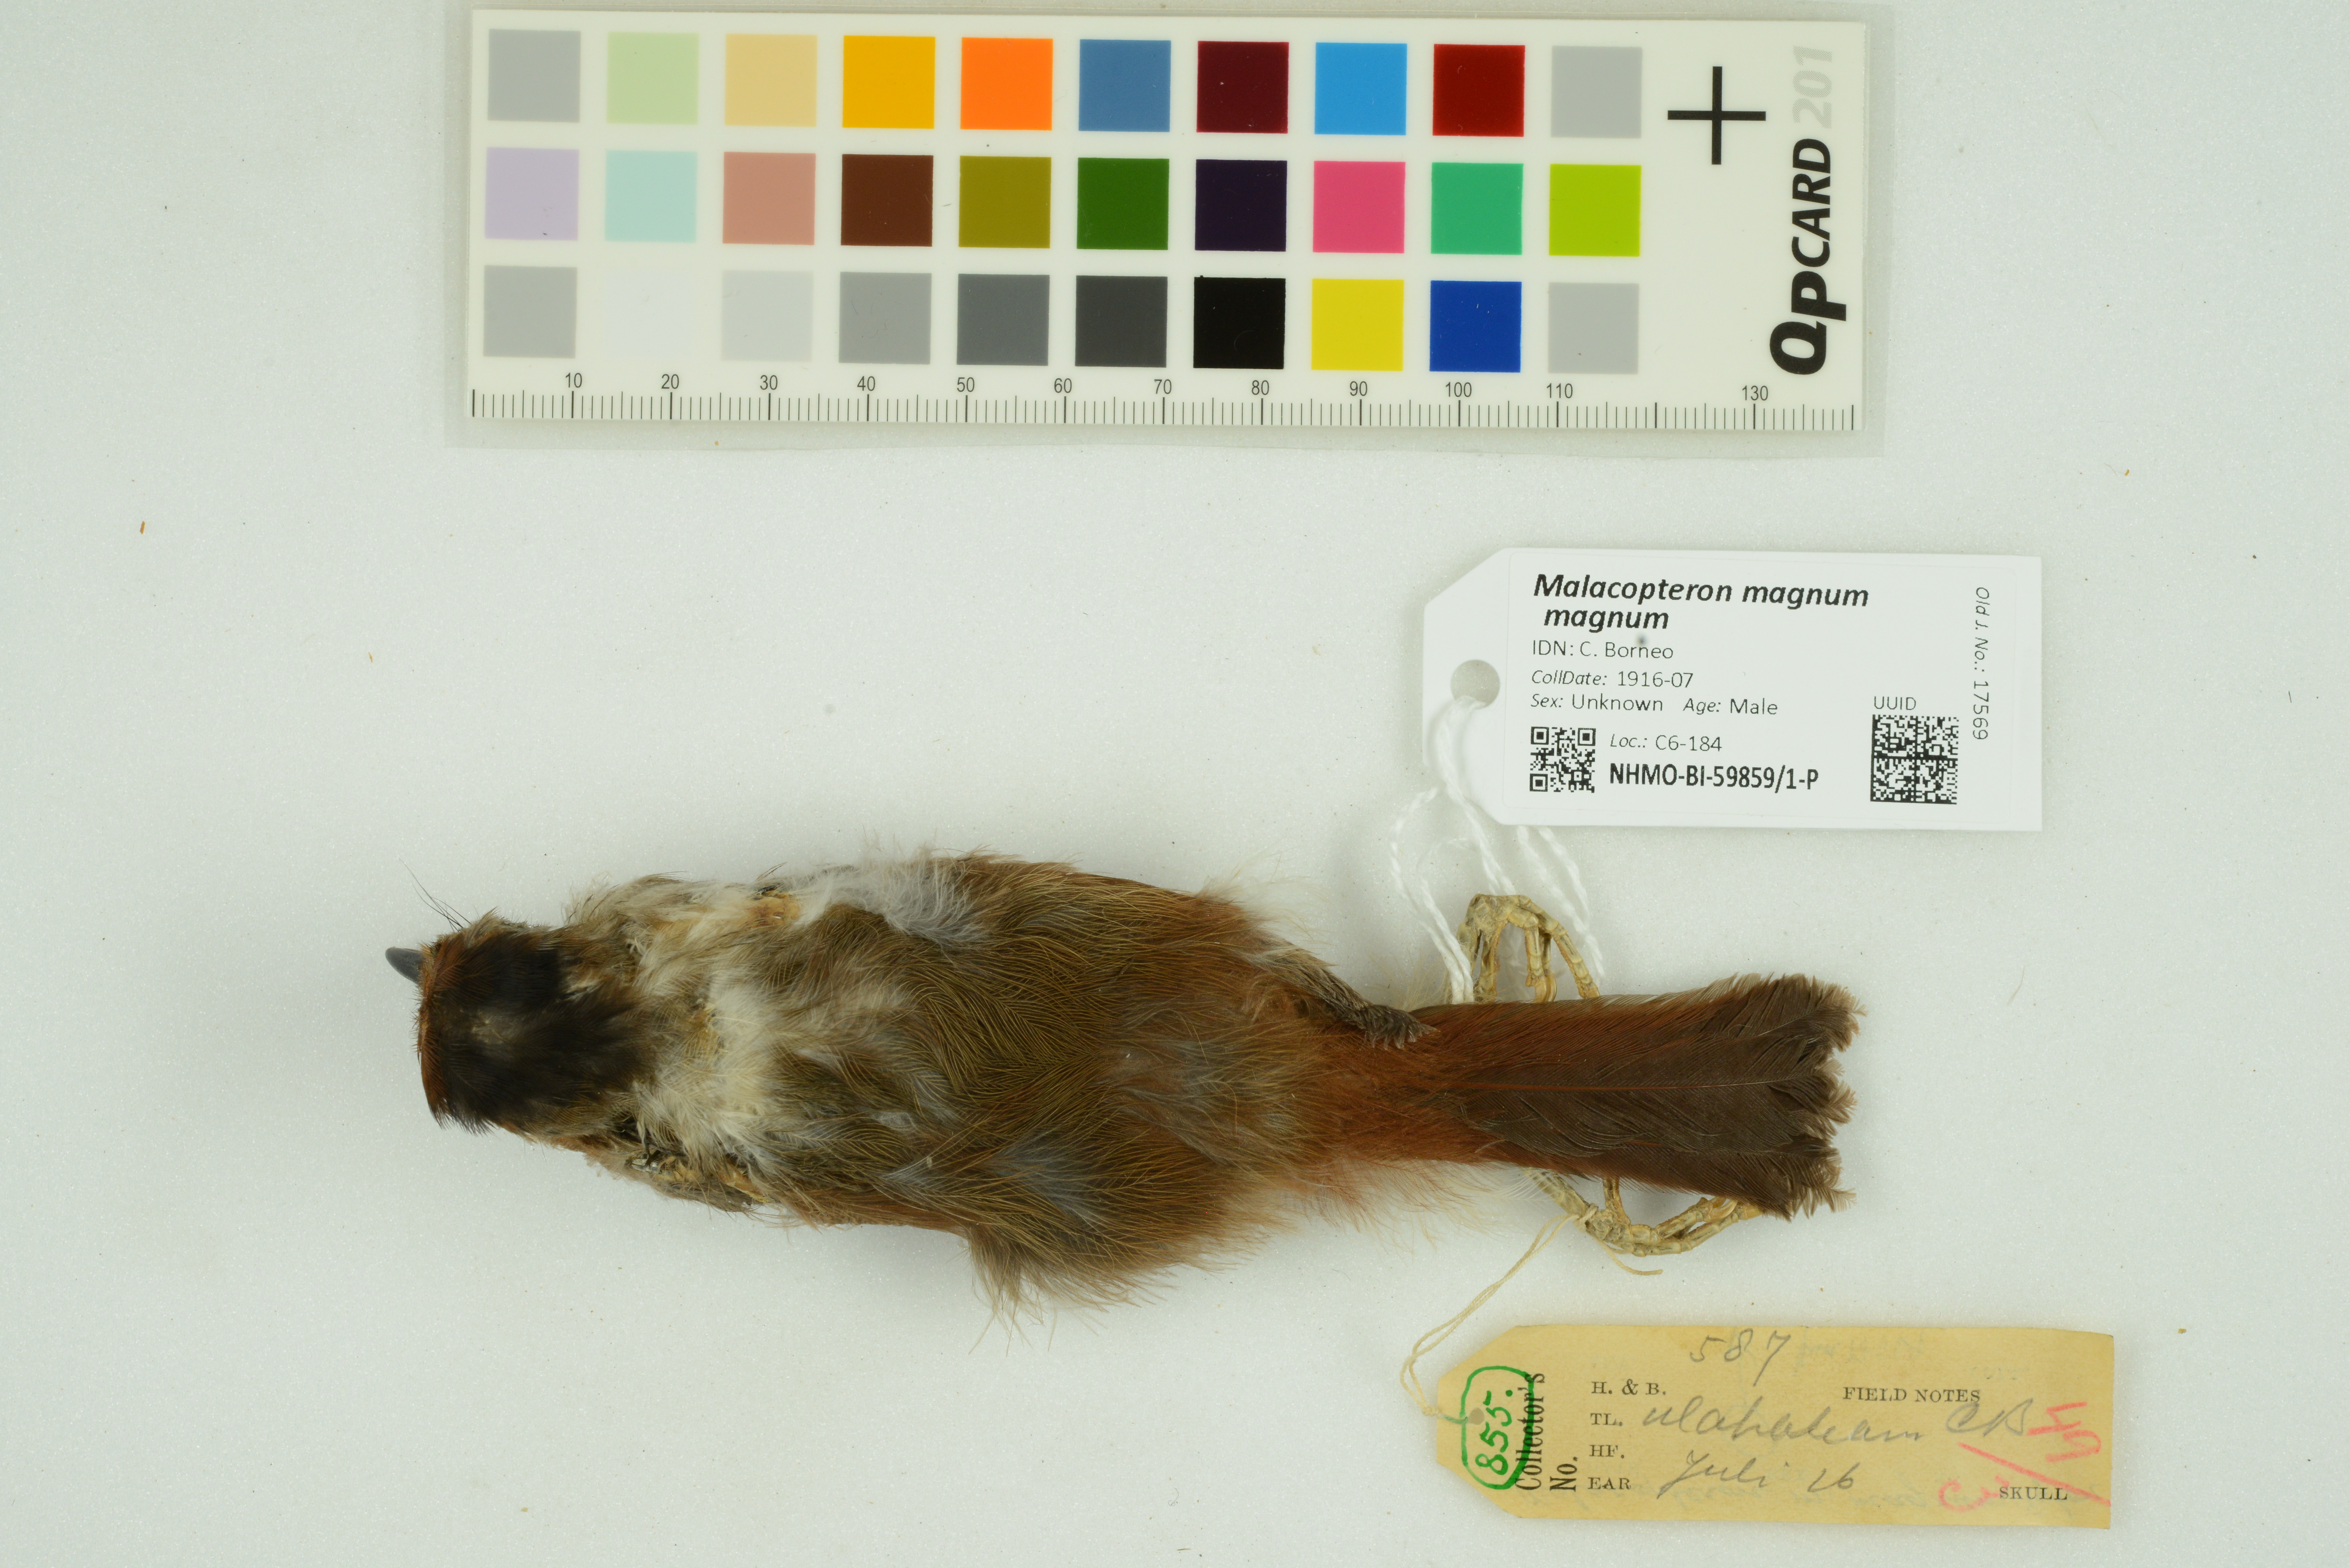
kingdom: Animalia
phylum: Chordata
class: Aves
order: Passeriformes
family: Pellorneidae
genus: Malacopteron
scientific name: Malacopteron magnum
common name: Rufous-crowned babbler
